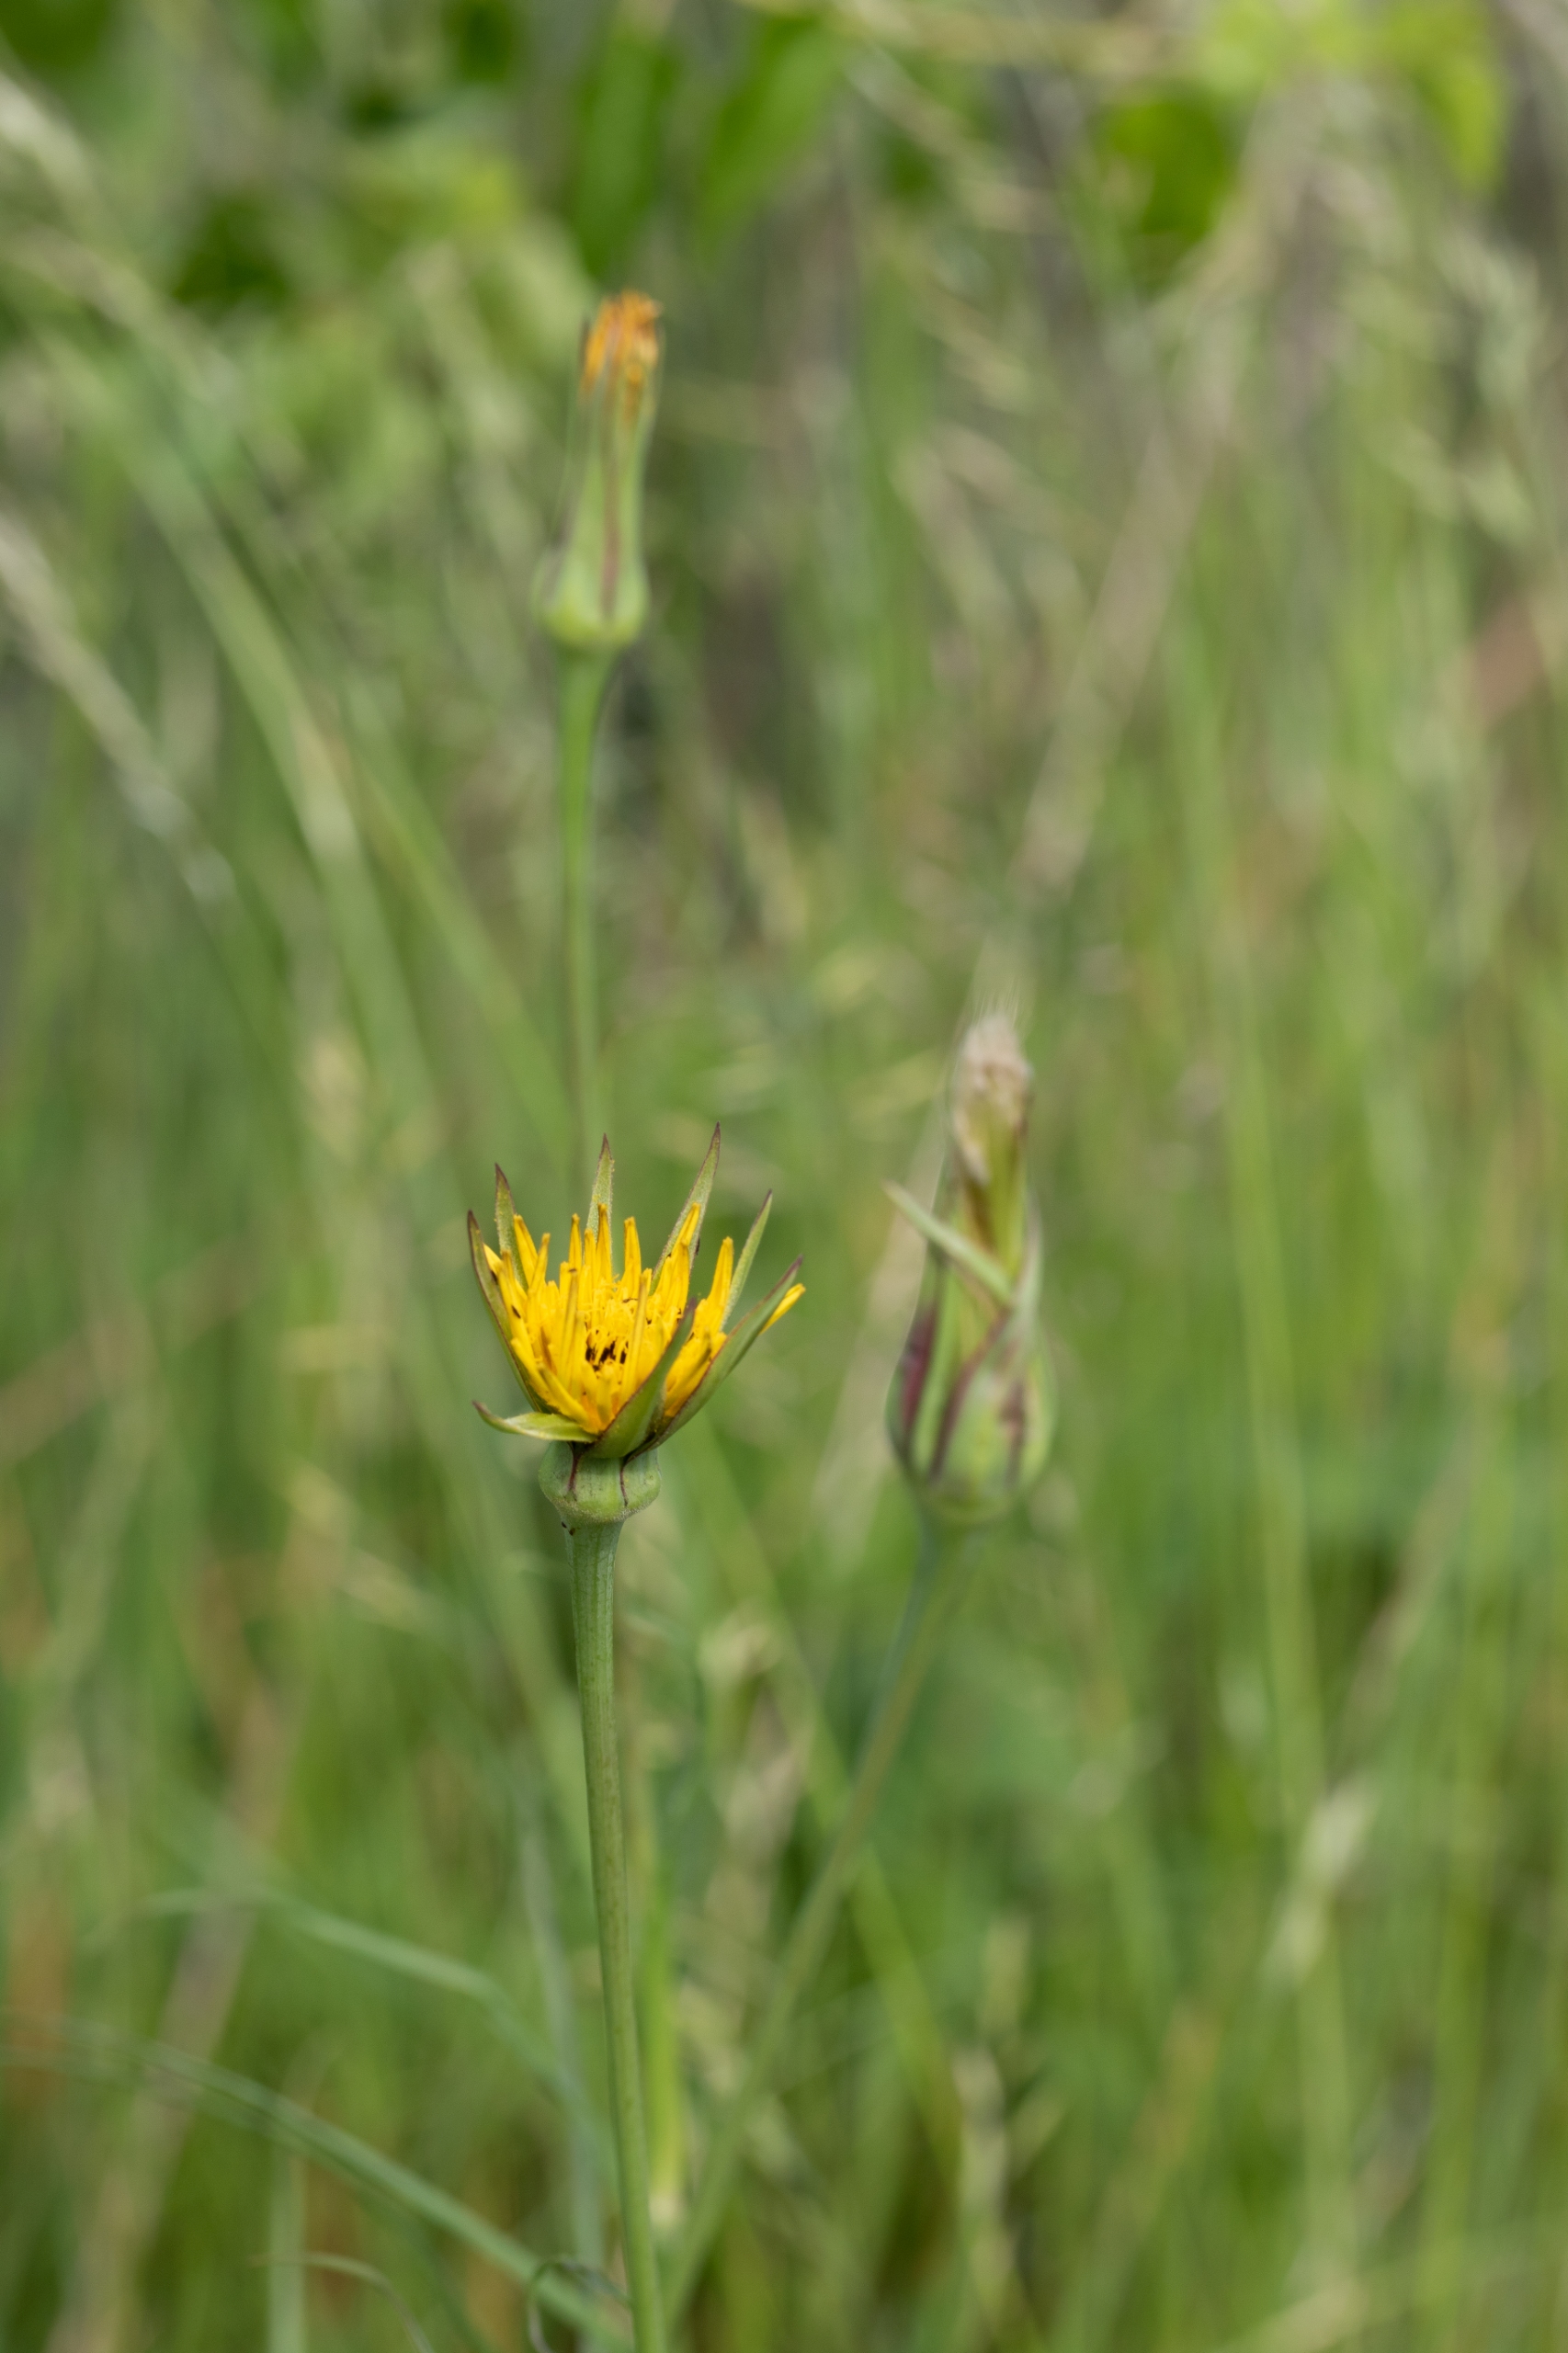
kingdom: Plantae
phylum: Tracheophyta
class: Magnoliopsida
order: Asterales
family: Asteraceae
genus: Tragopogon
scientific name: Tragopogon pratensis
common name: Gedeskæg
